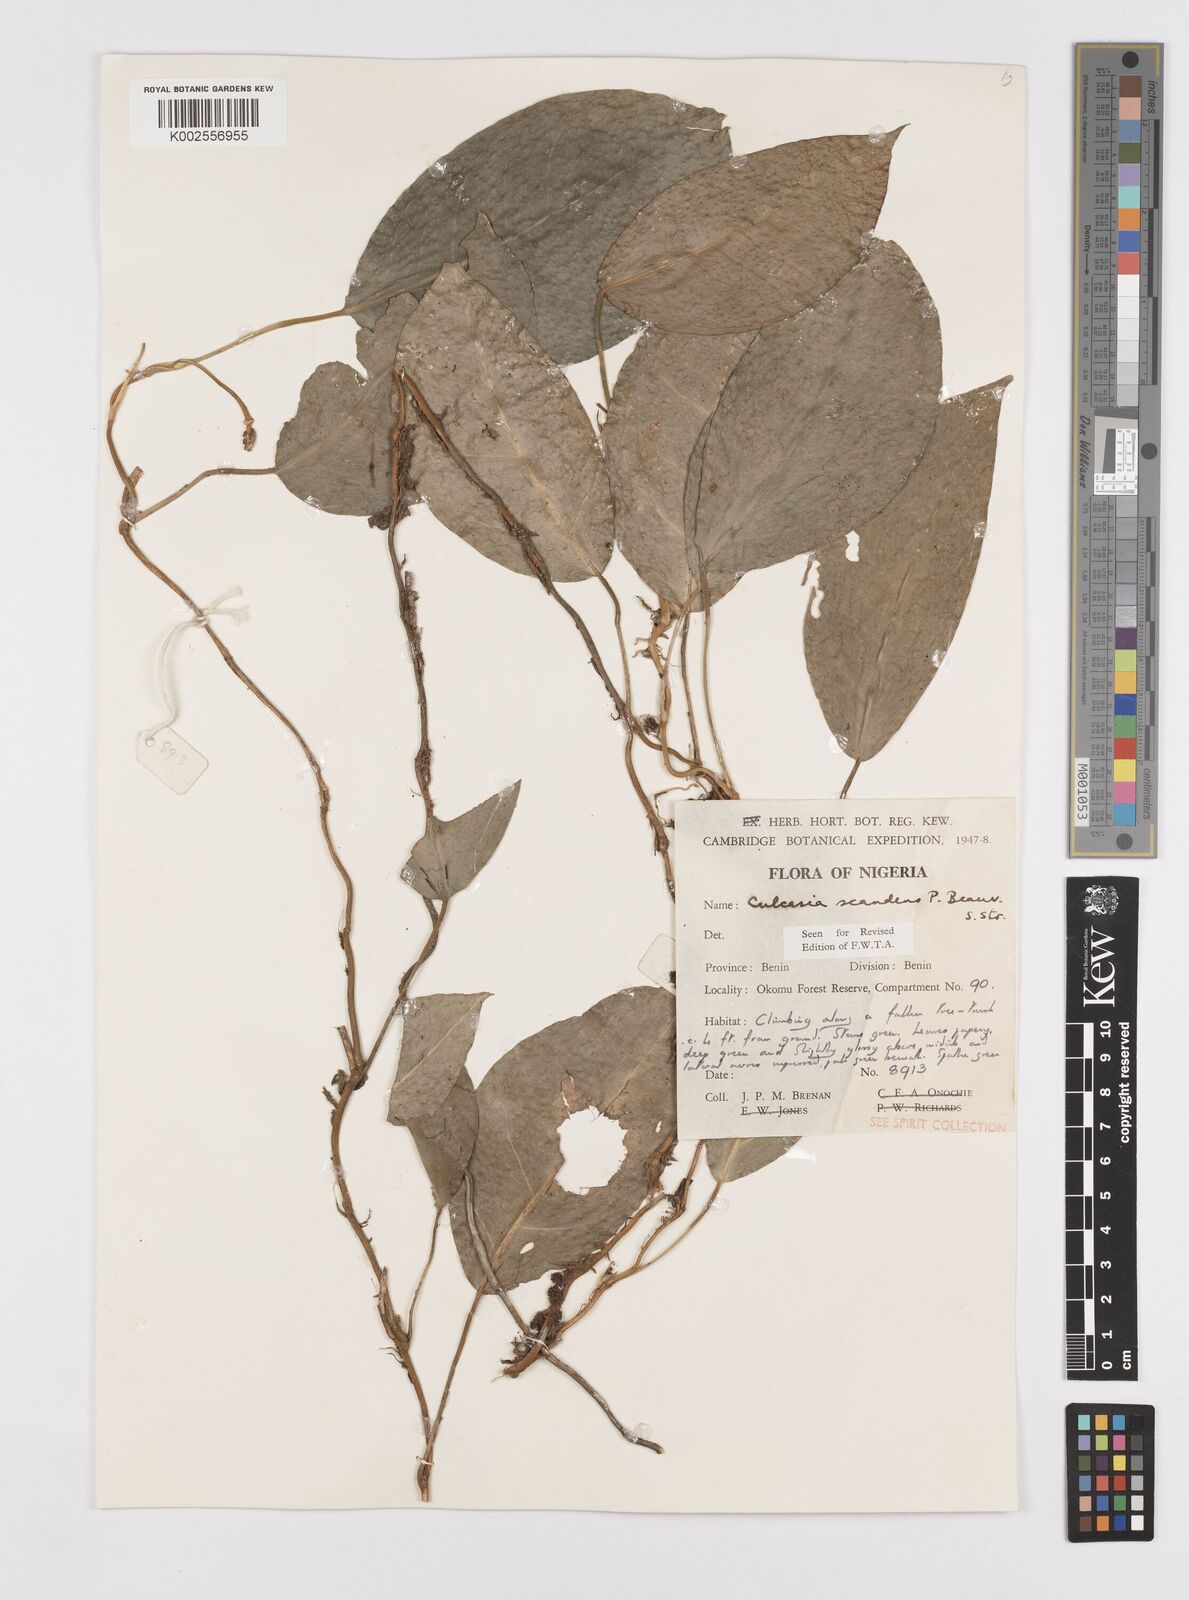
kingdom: Plantae
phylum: Tracheophyta
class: Liliopsida
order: Alismatales
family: Araceae
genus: Culcasia
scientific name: Culcasia scandens
